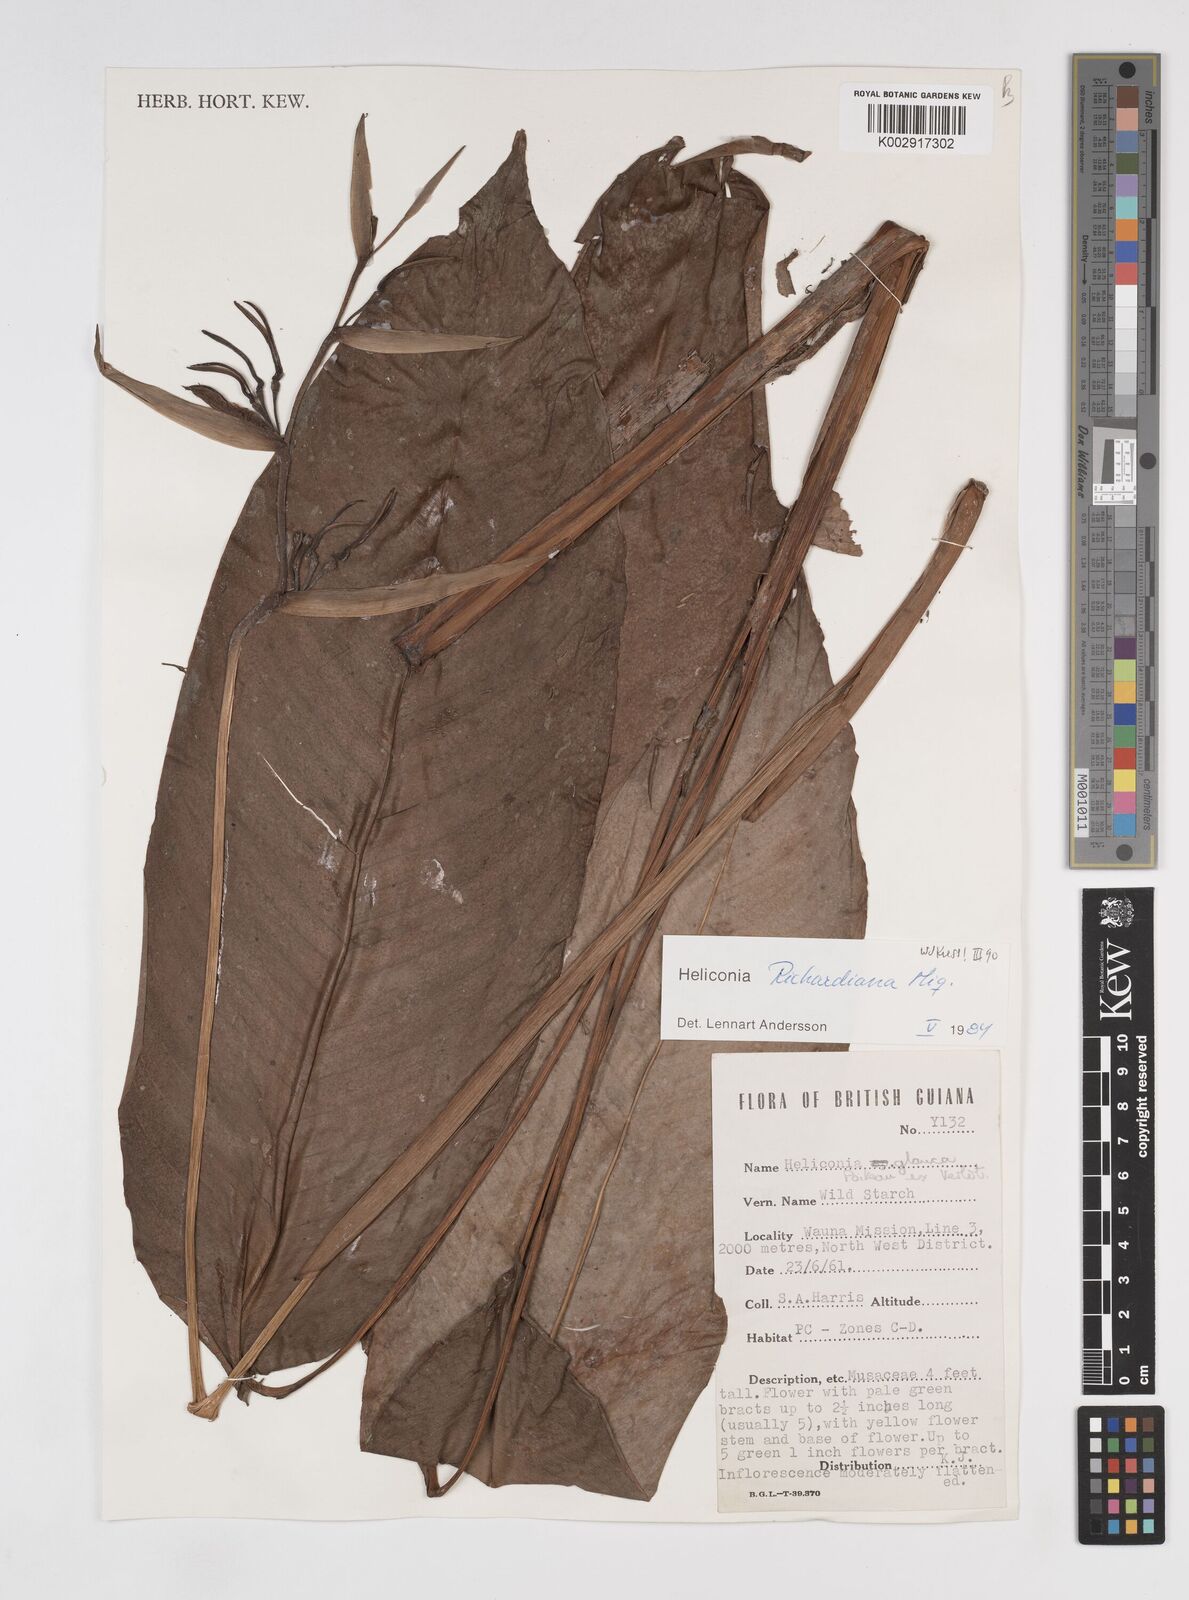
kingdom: Plantae
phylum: Tracheophyta
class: Liliopsida
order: Zingiberales
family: Heliconiaceae
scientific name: Heliconiaceae
